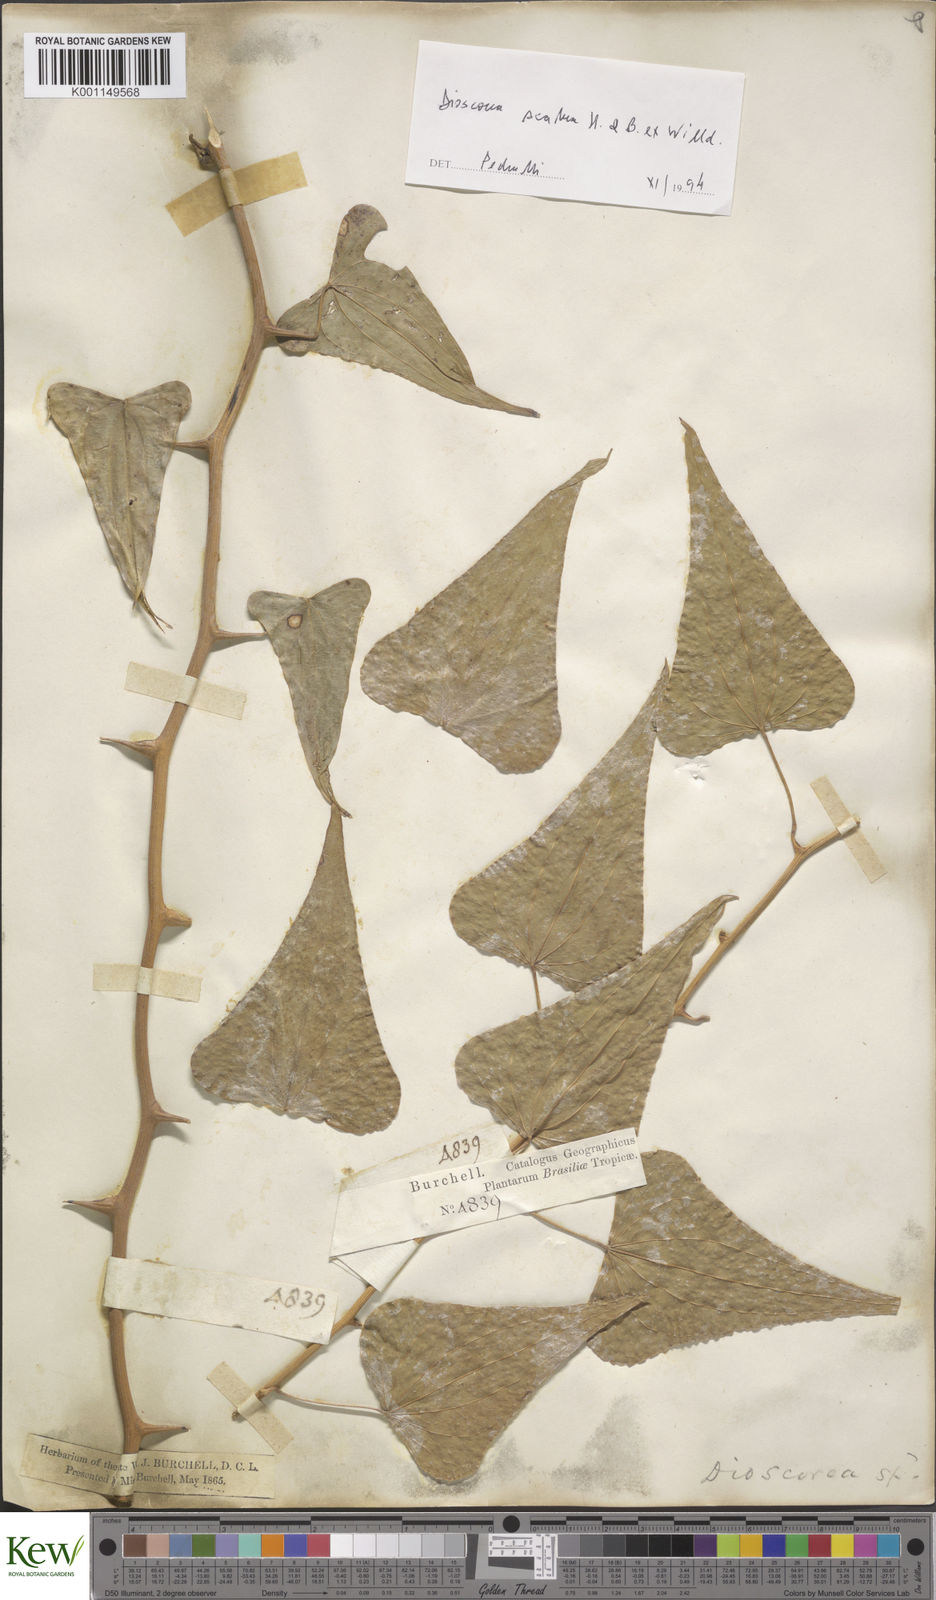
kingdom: Plantae
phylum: Tracheophyta
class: Liliopsida
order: Dioscoreales
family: Dioscoreaceae
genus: Dioscorea
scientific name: Dioscorea multiflora
